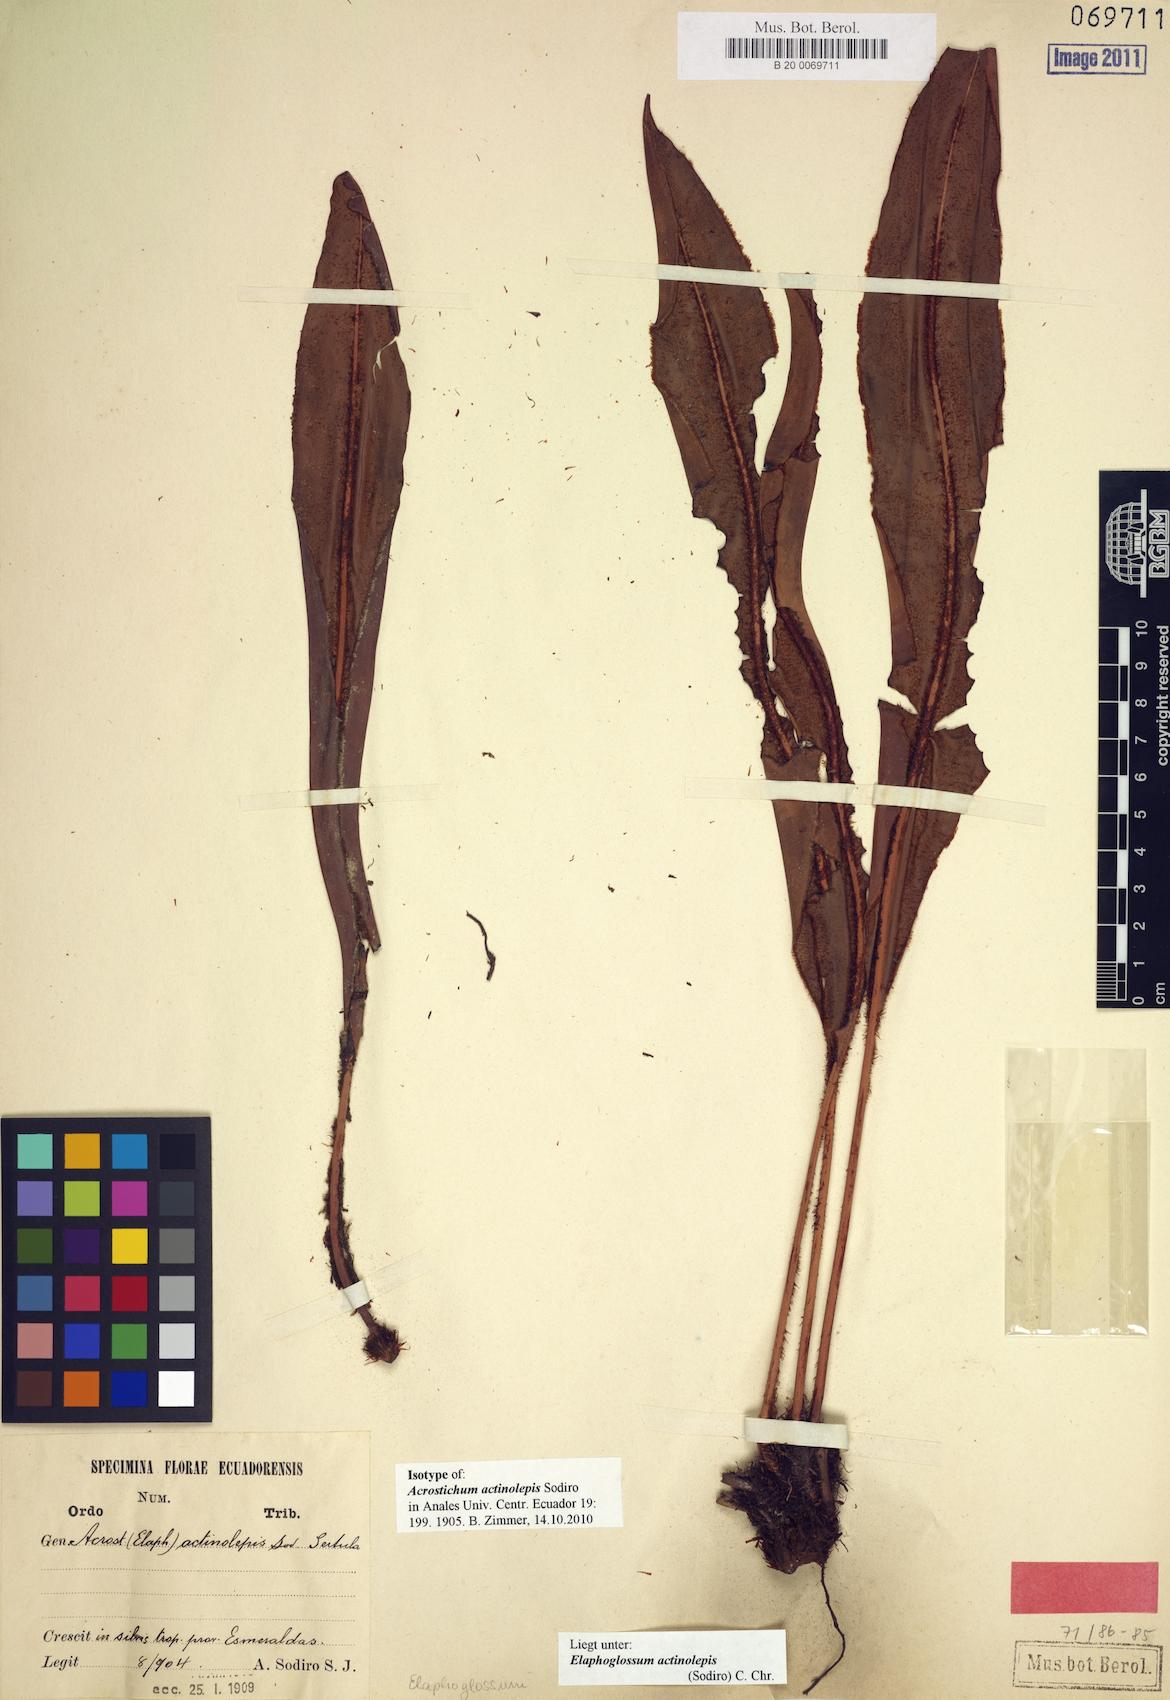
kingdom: Plantae
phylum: Tracheophyta
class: Polypodiopsida
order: Polypodiales
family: Dryopteridaceae
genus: Elaphoglossum
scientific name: Elaphoglossum actinolepis
